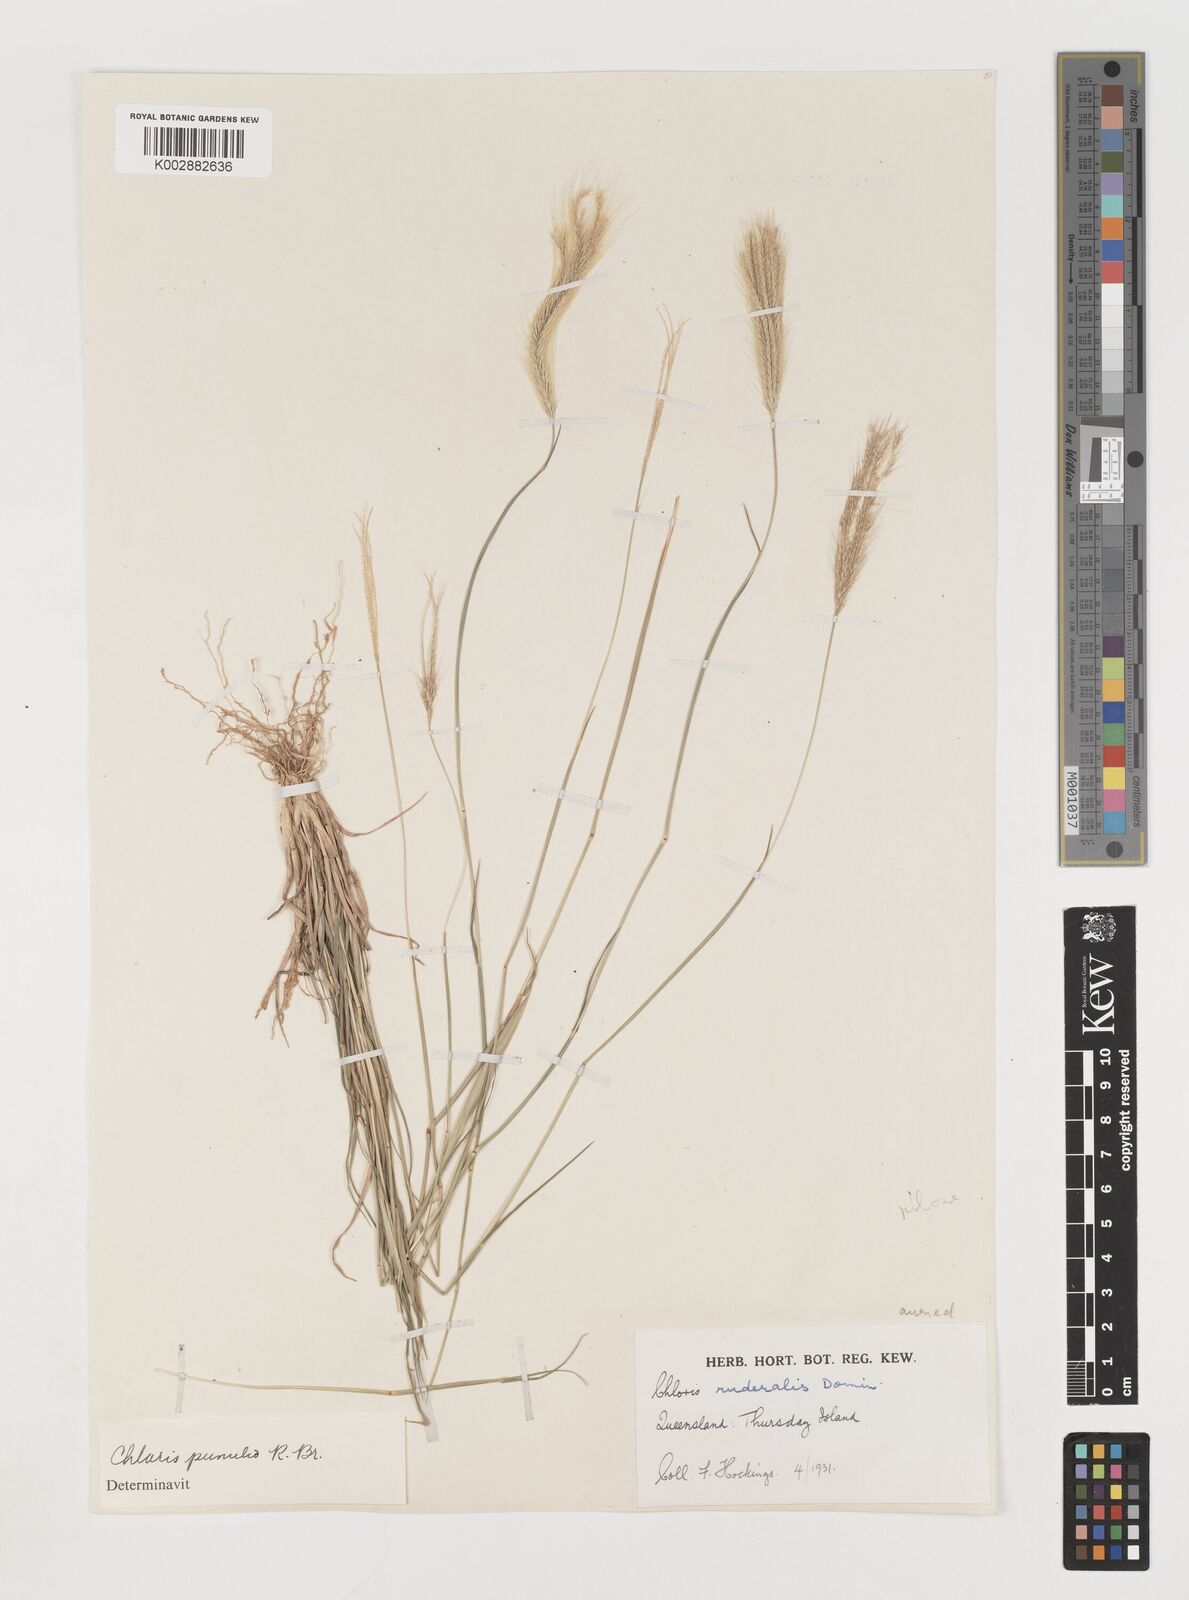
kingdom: Plantae
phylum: Tracheophyta
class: Liliopsida
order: Poales
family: Poaceae
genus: Chloris
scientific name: Chloris pumilio
